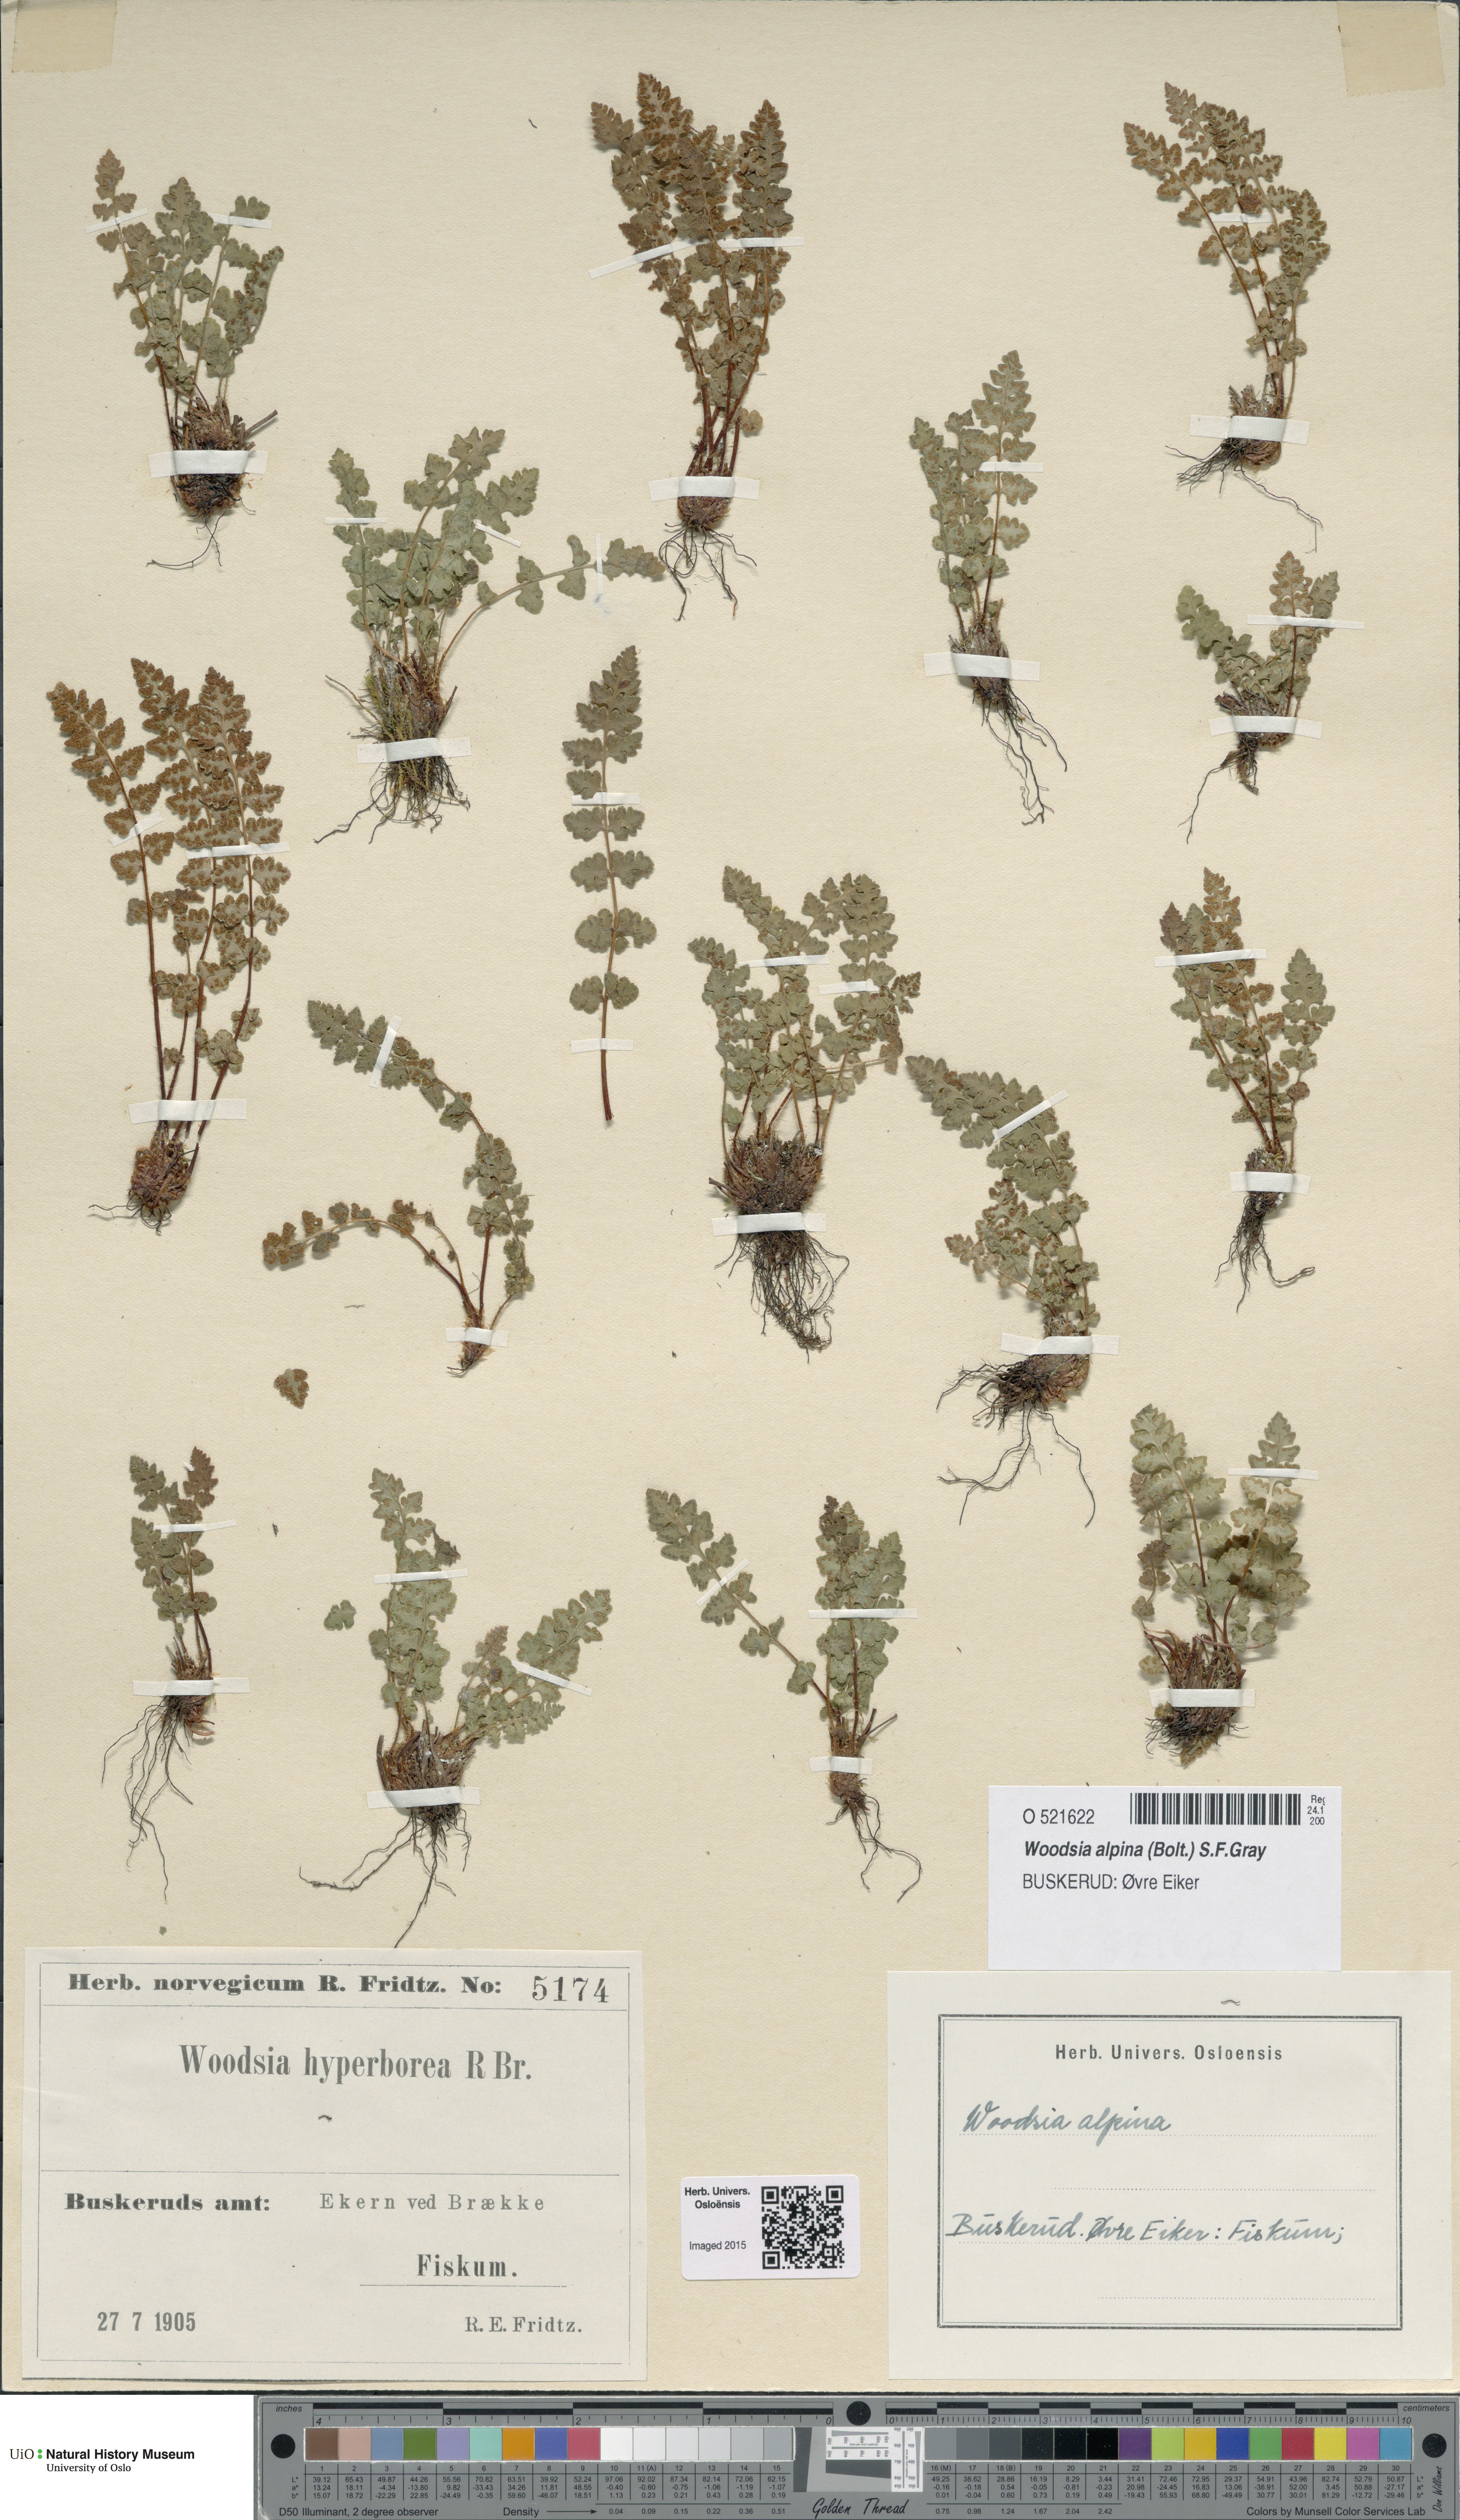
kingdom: Plantae
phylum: Tracheophyta
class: Polypodiopsida
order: Polypodiales
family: Woodsiaceae
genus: Woodsia
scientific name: Woodsia alpina
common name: Alpine woodsia
